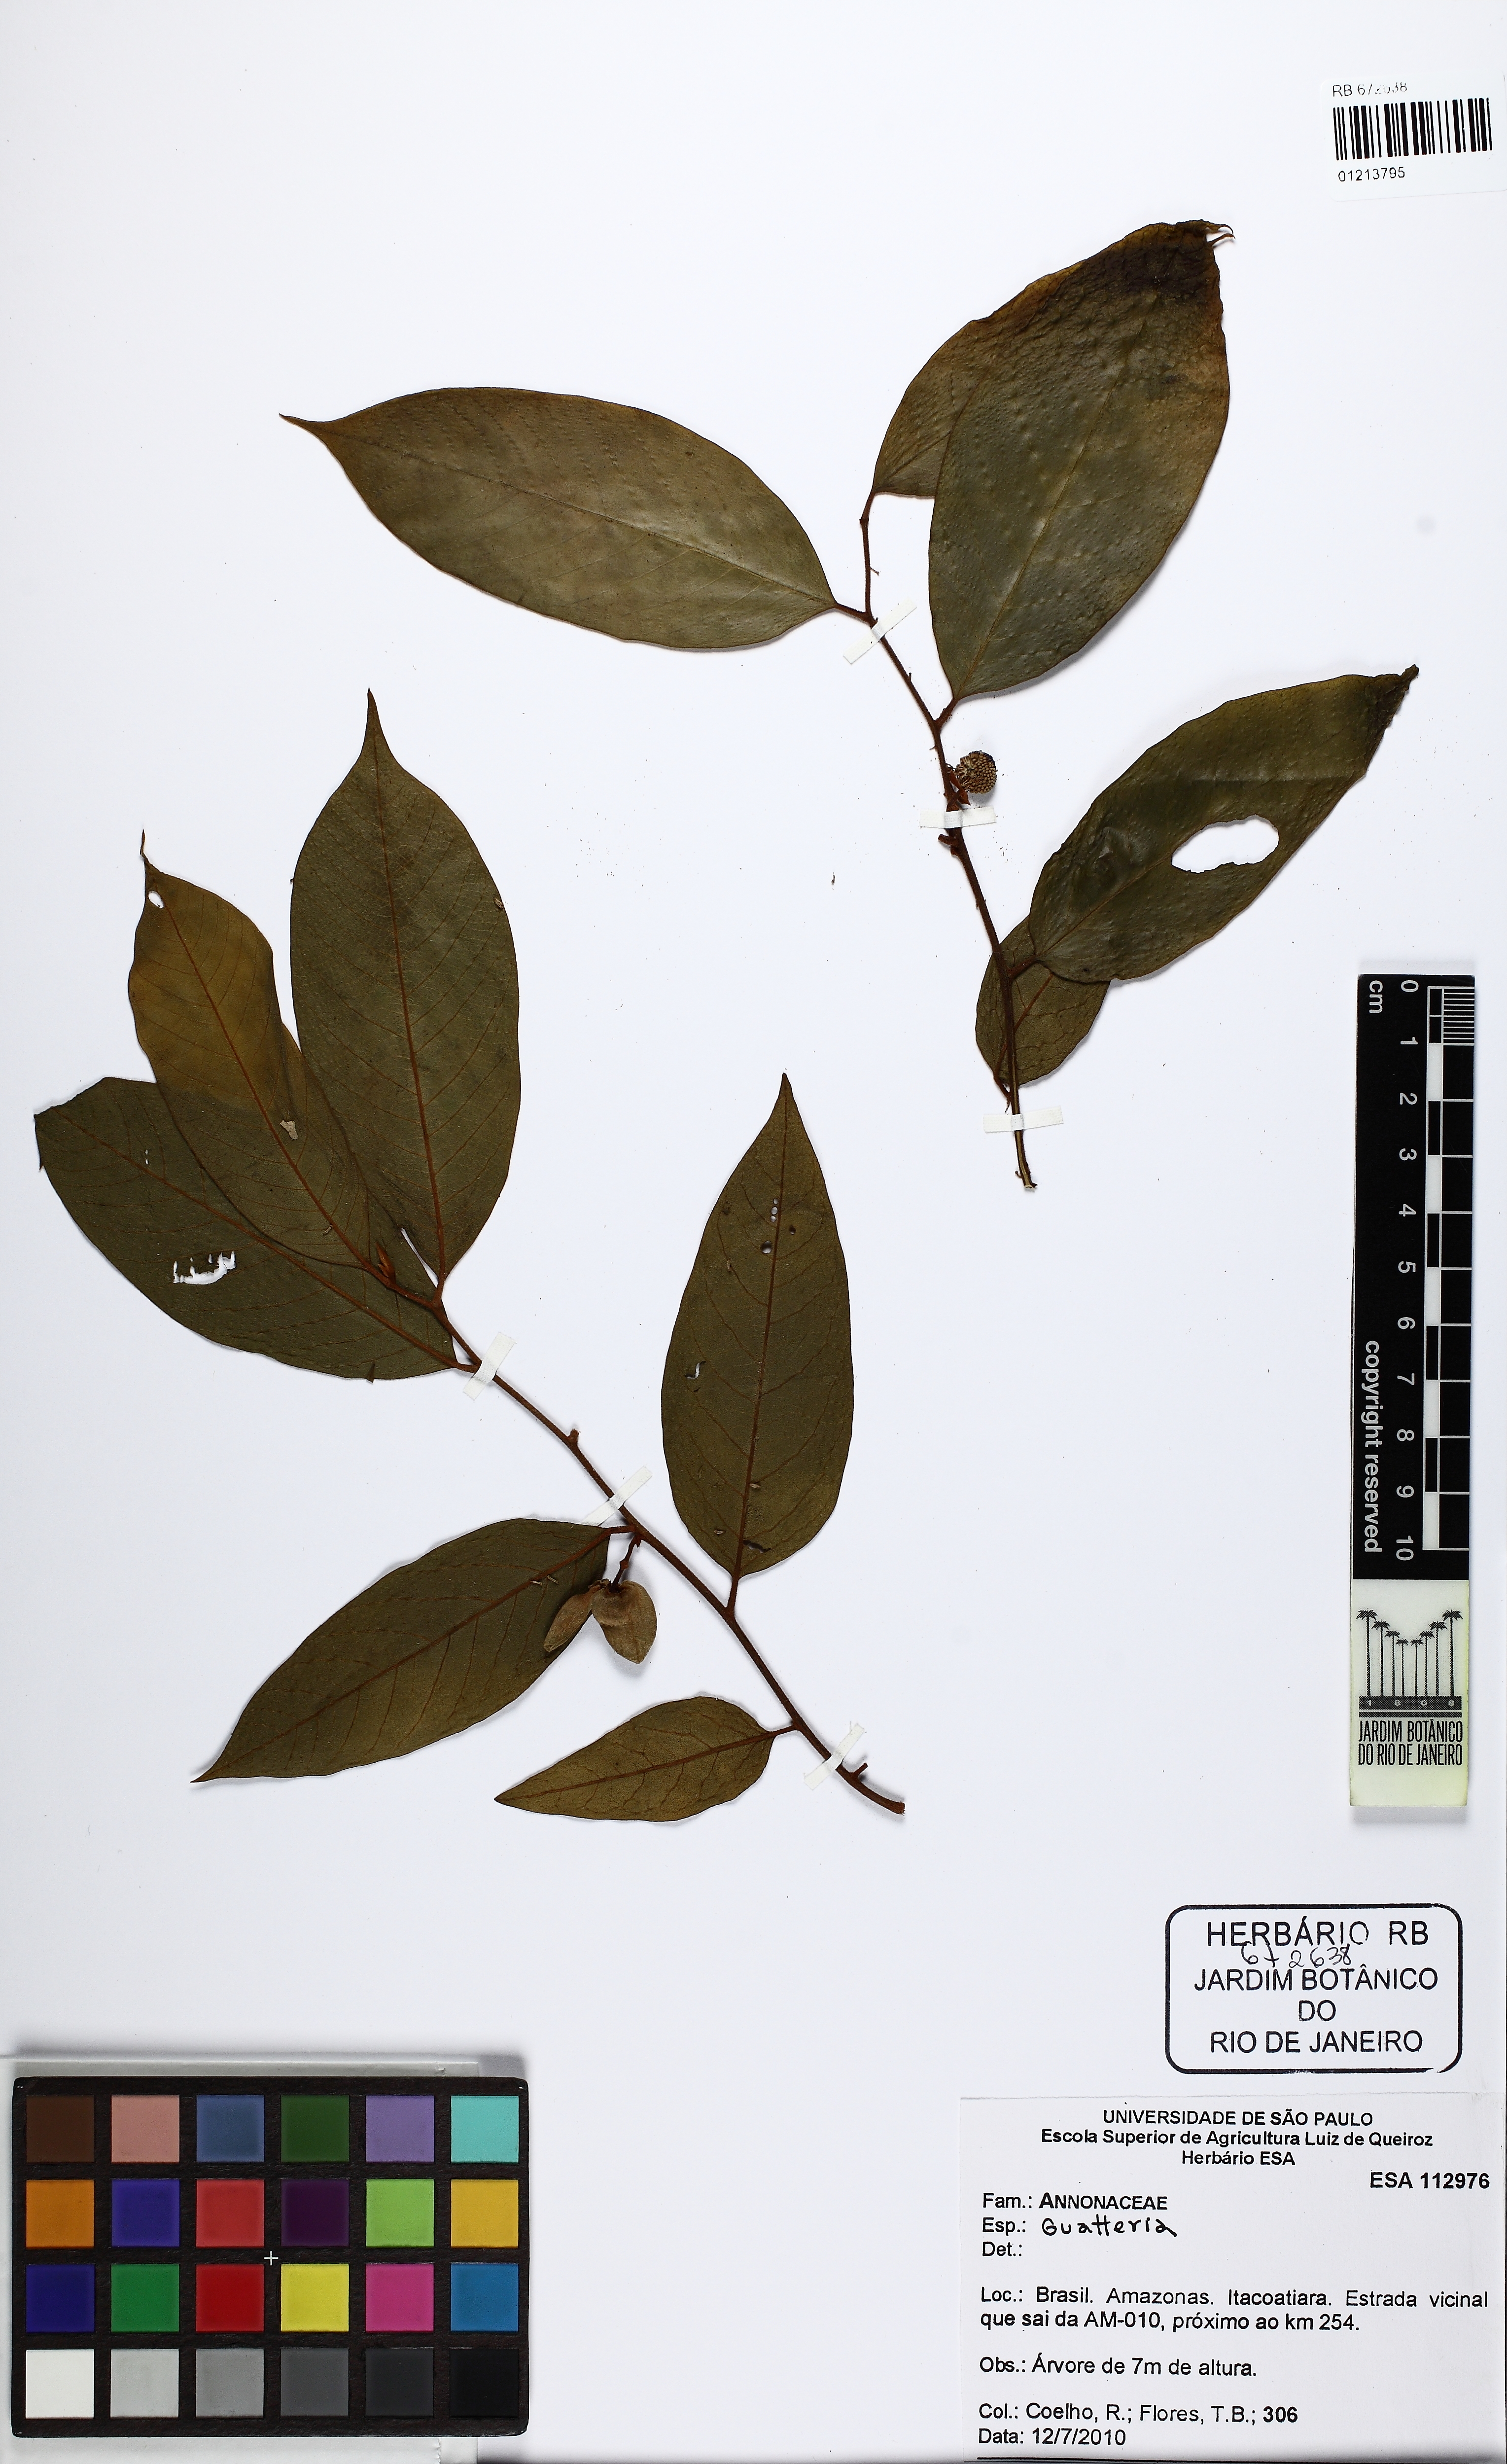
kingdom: Plantae
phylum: Tracheophyta
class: Magnoliopsida
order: Magnoliales
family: Annonaceae
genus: Guatteria
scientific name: Guatteria
